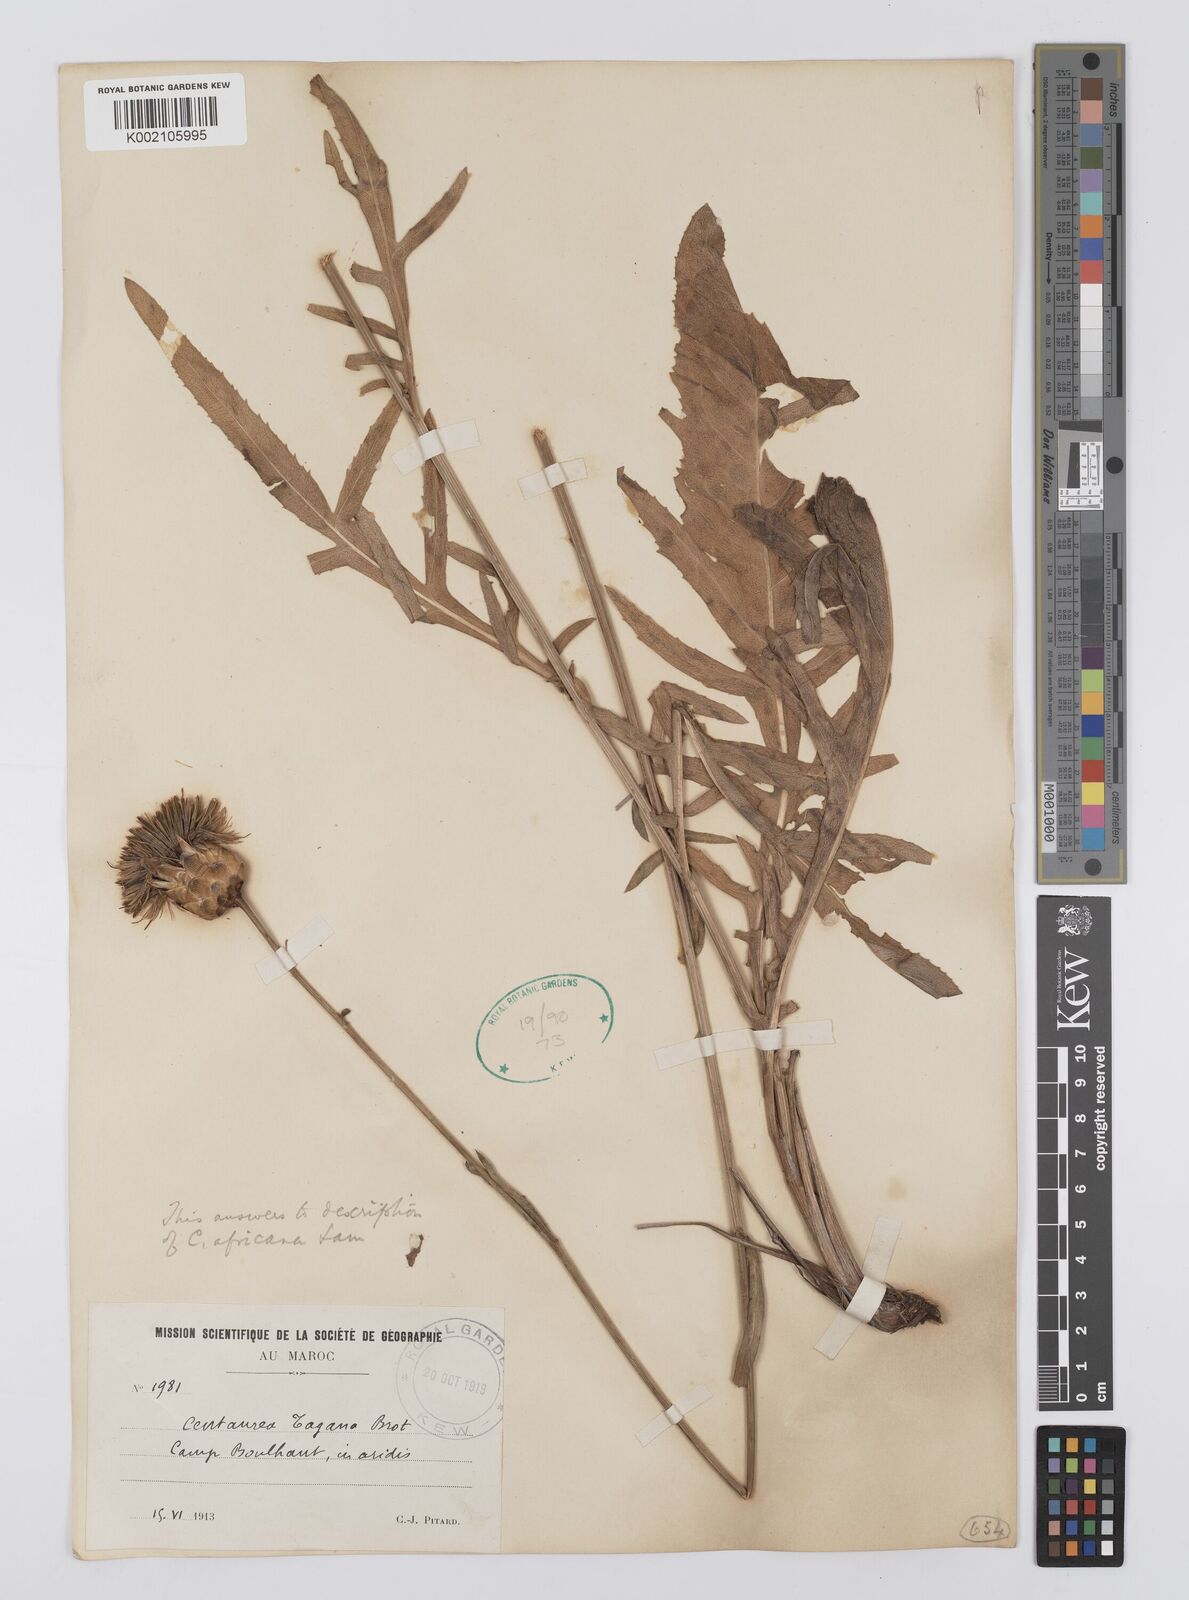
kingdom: Plantae
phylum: Tracheophyta
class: Magnoliopsida
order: Asterales
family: Asteraceae
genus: Rhaponticoides
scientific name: Rhaponticoides africana
